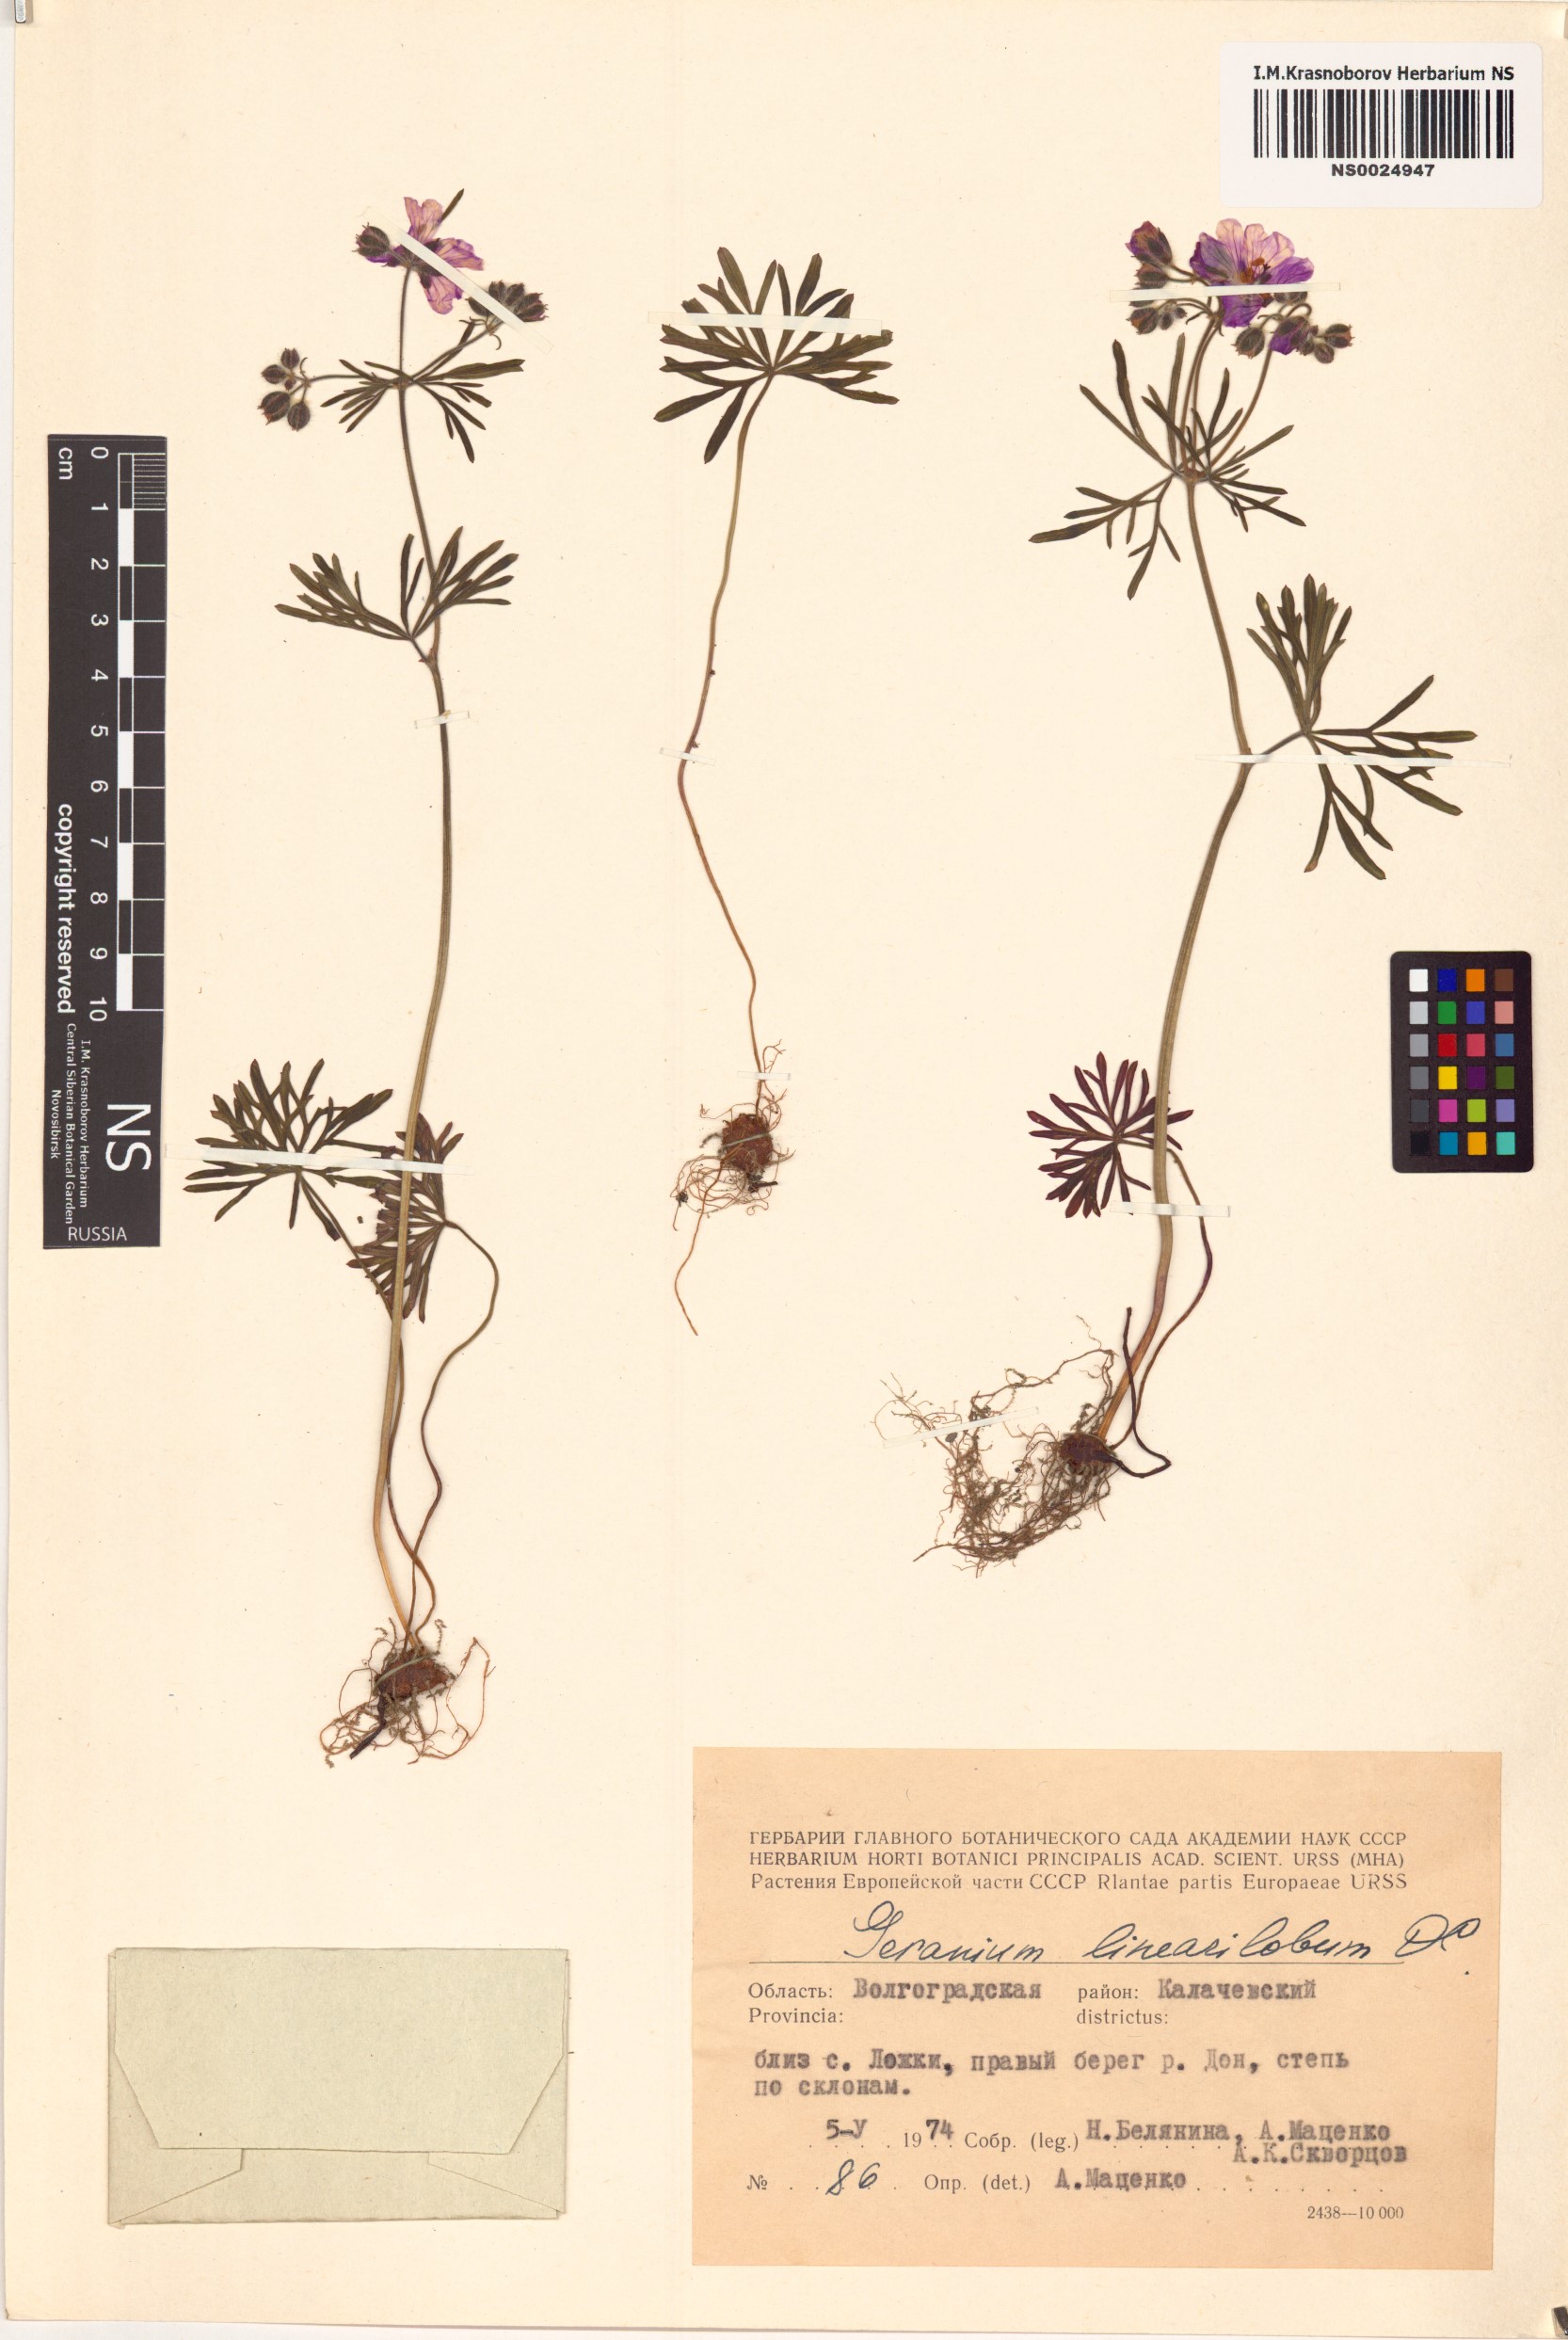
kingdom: Plantae
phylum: Tracheophyta
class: Magnoliopsida
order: Geraniales
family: Geraniaceae
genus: Geranium
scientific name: Geranium linearilobum
